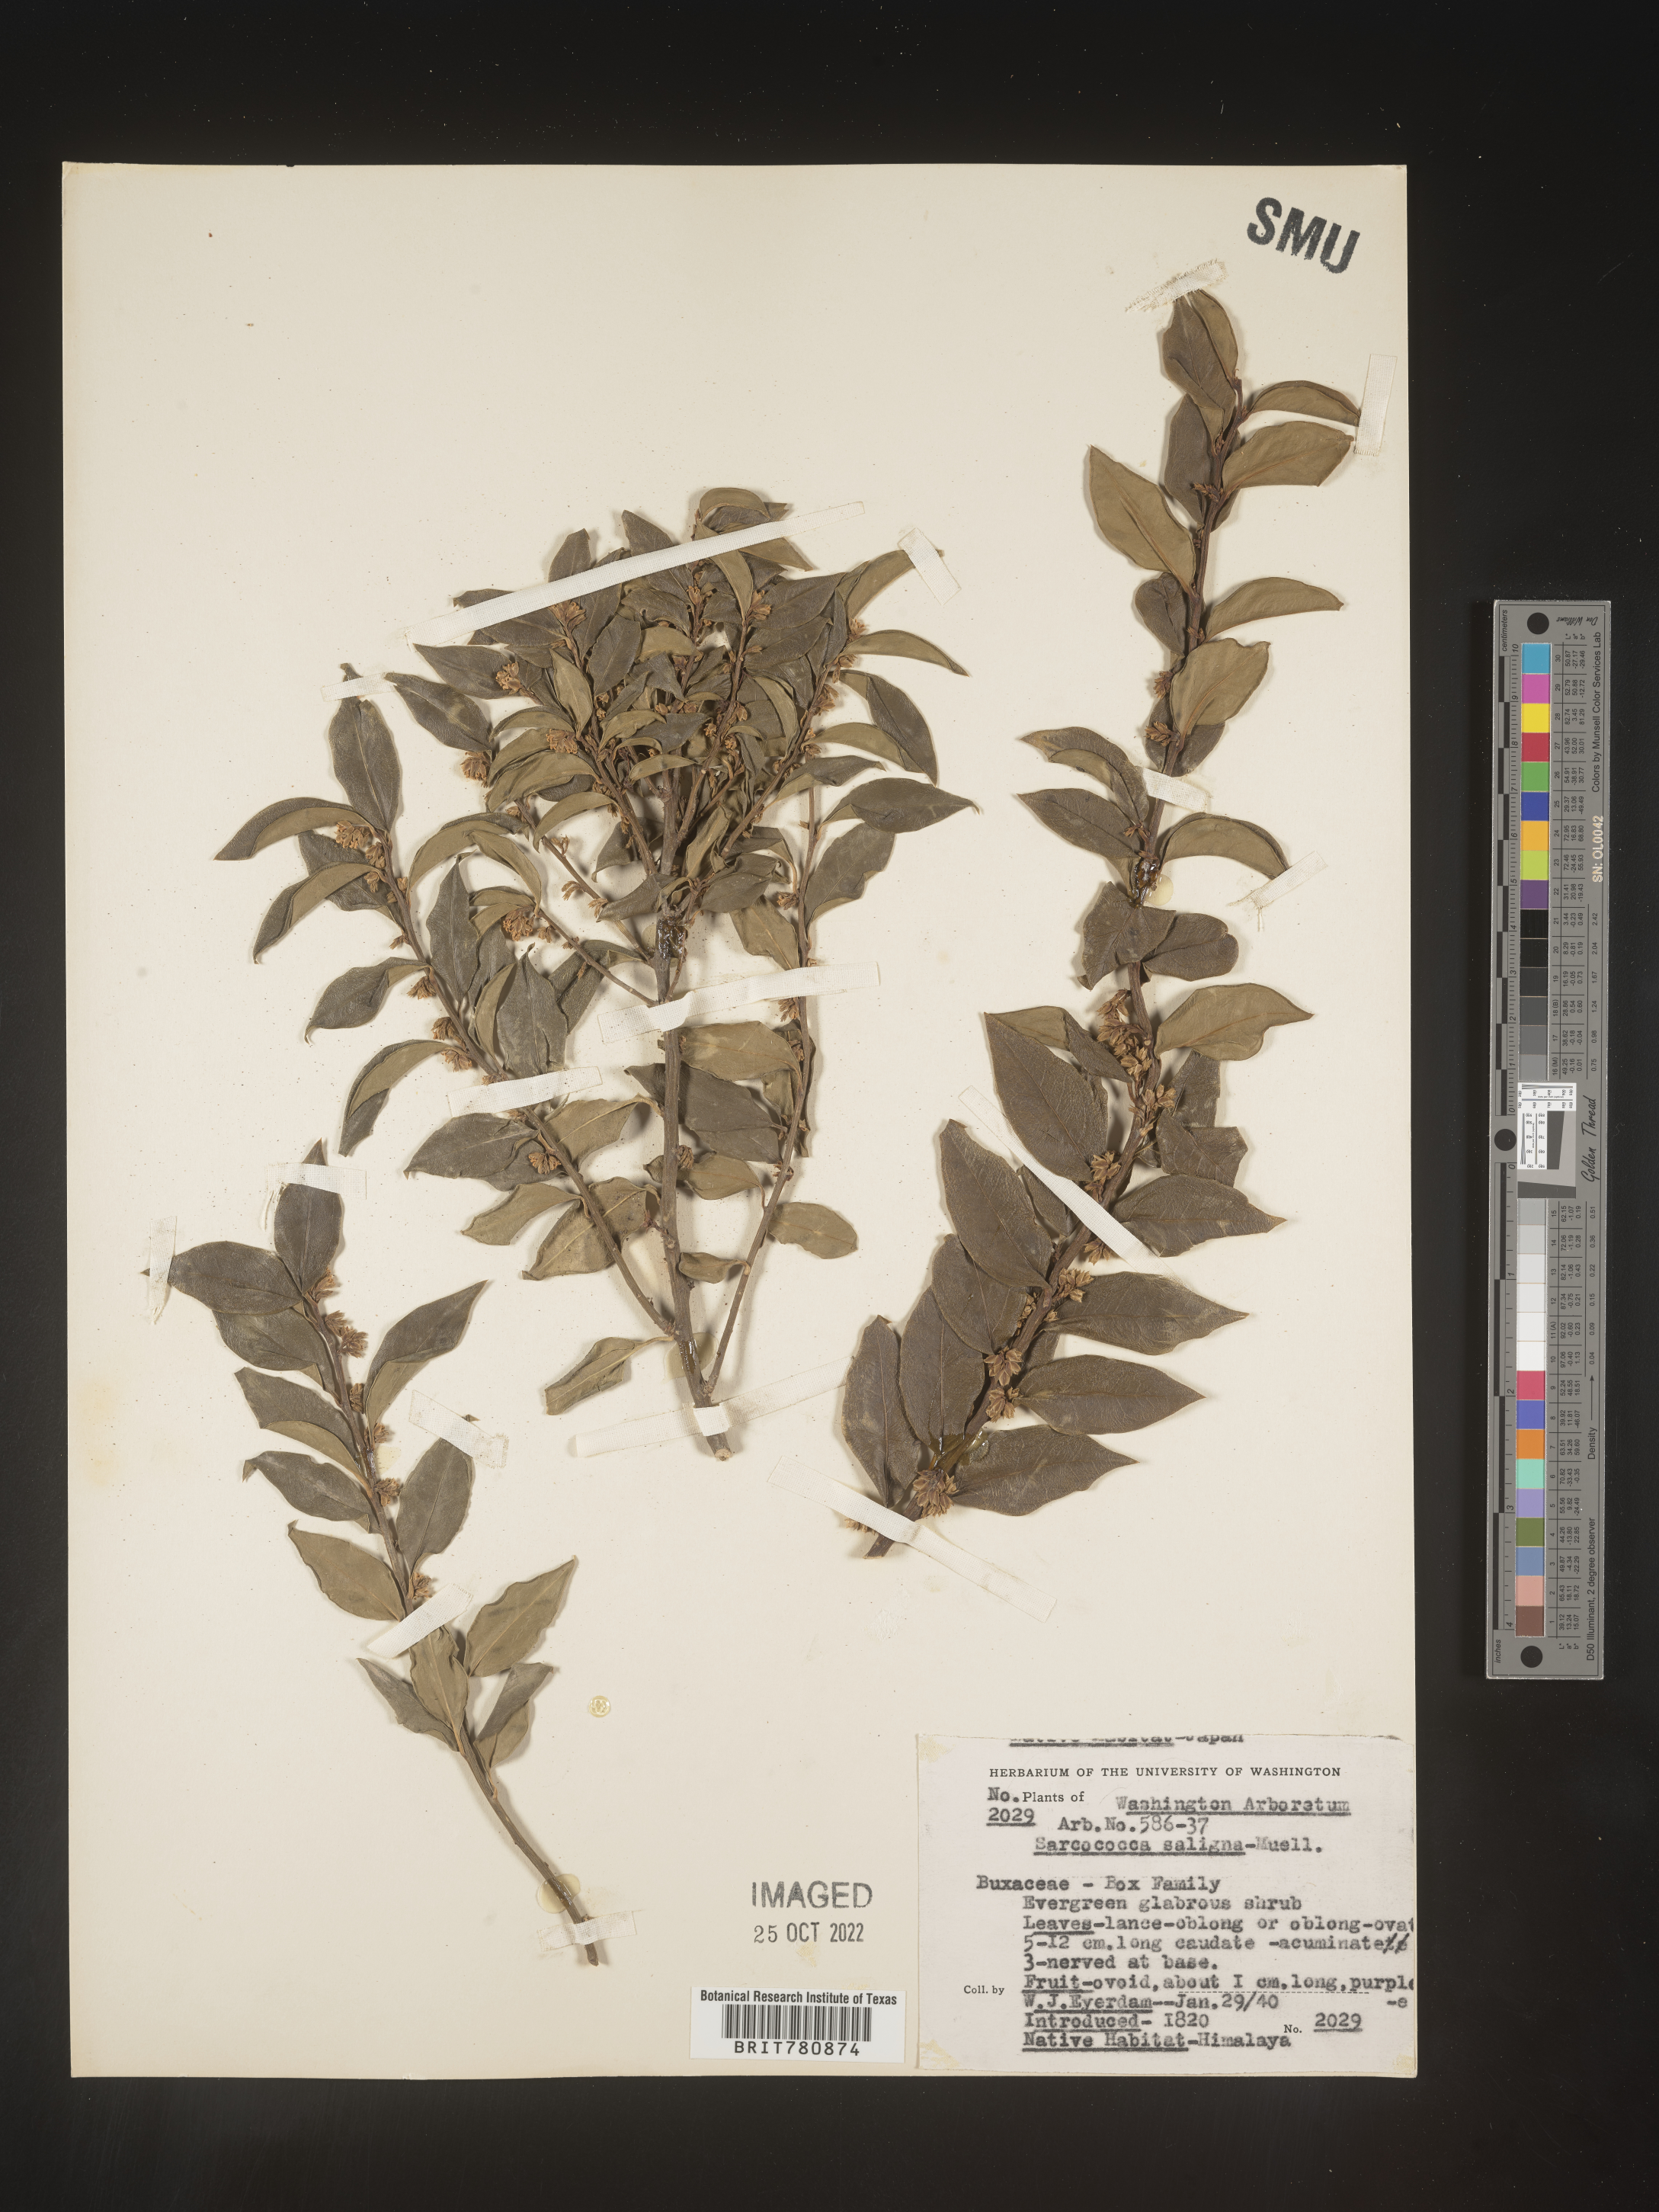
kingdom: Plantae
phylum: Tracheophyta
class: Magnoliopsida
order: Buxales
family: Buxaceae
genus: Sarcococca
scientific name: Sarcococca
